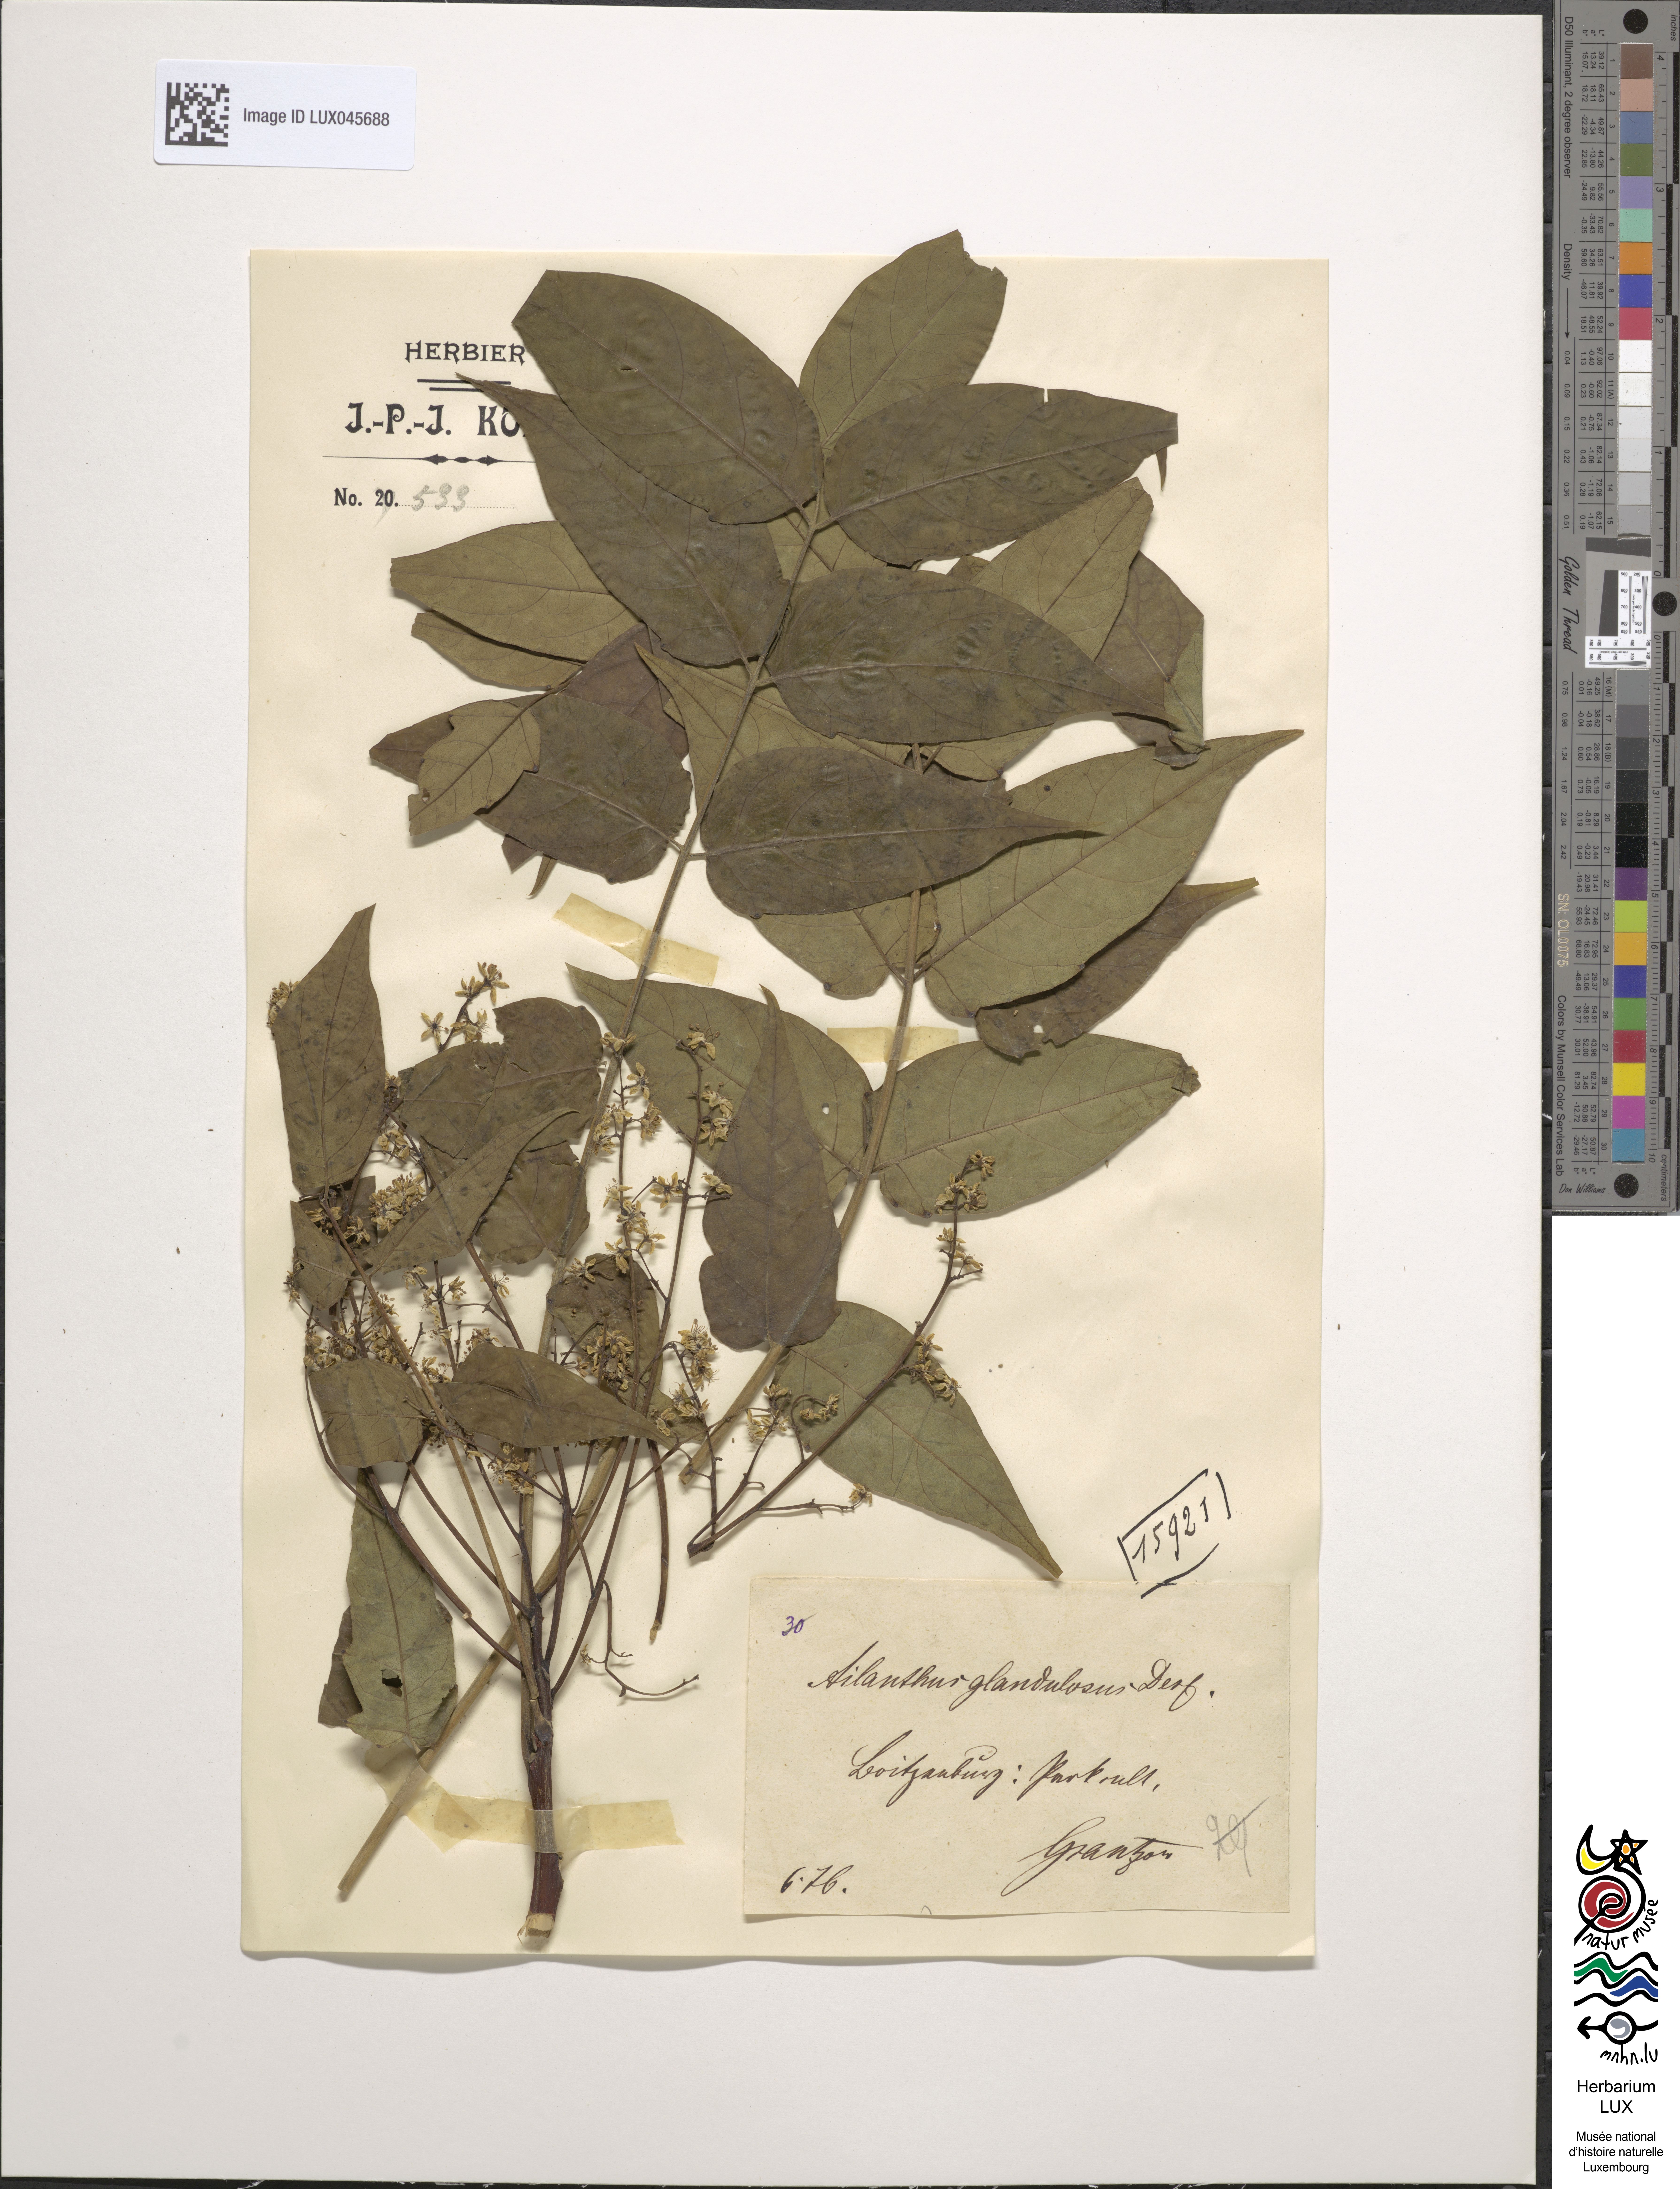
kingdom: Plantae
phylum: Tracheophyta
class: Magnoliopsida
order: Sapindales
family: Simaroubaceae
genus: Ailanthus
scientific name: Ailanthus altissima
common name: Tree-of-heaven
